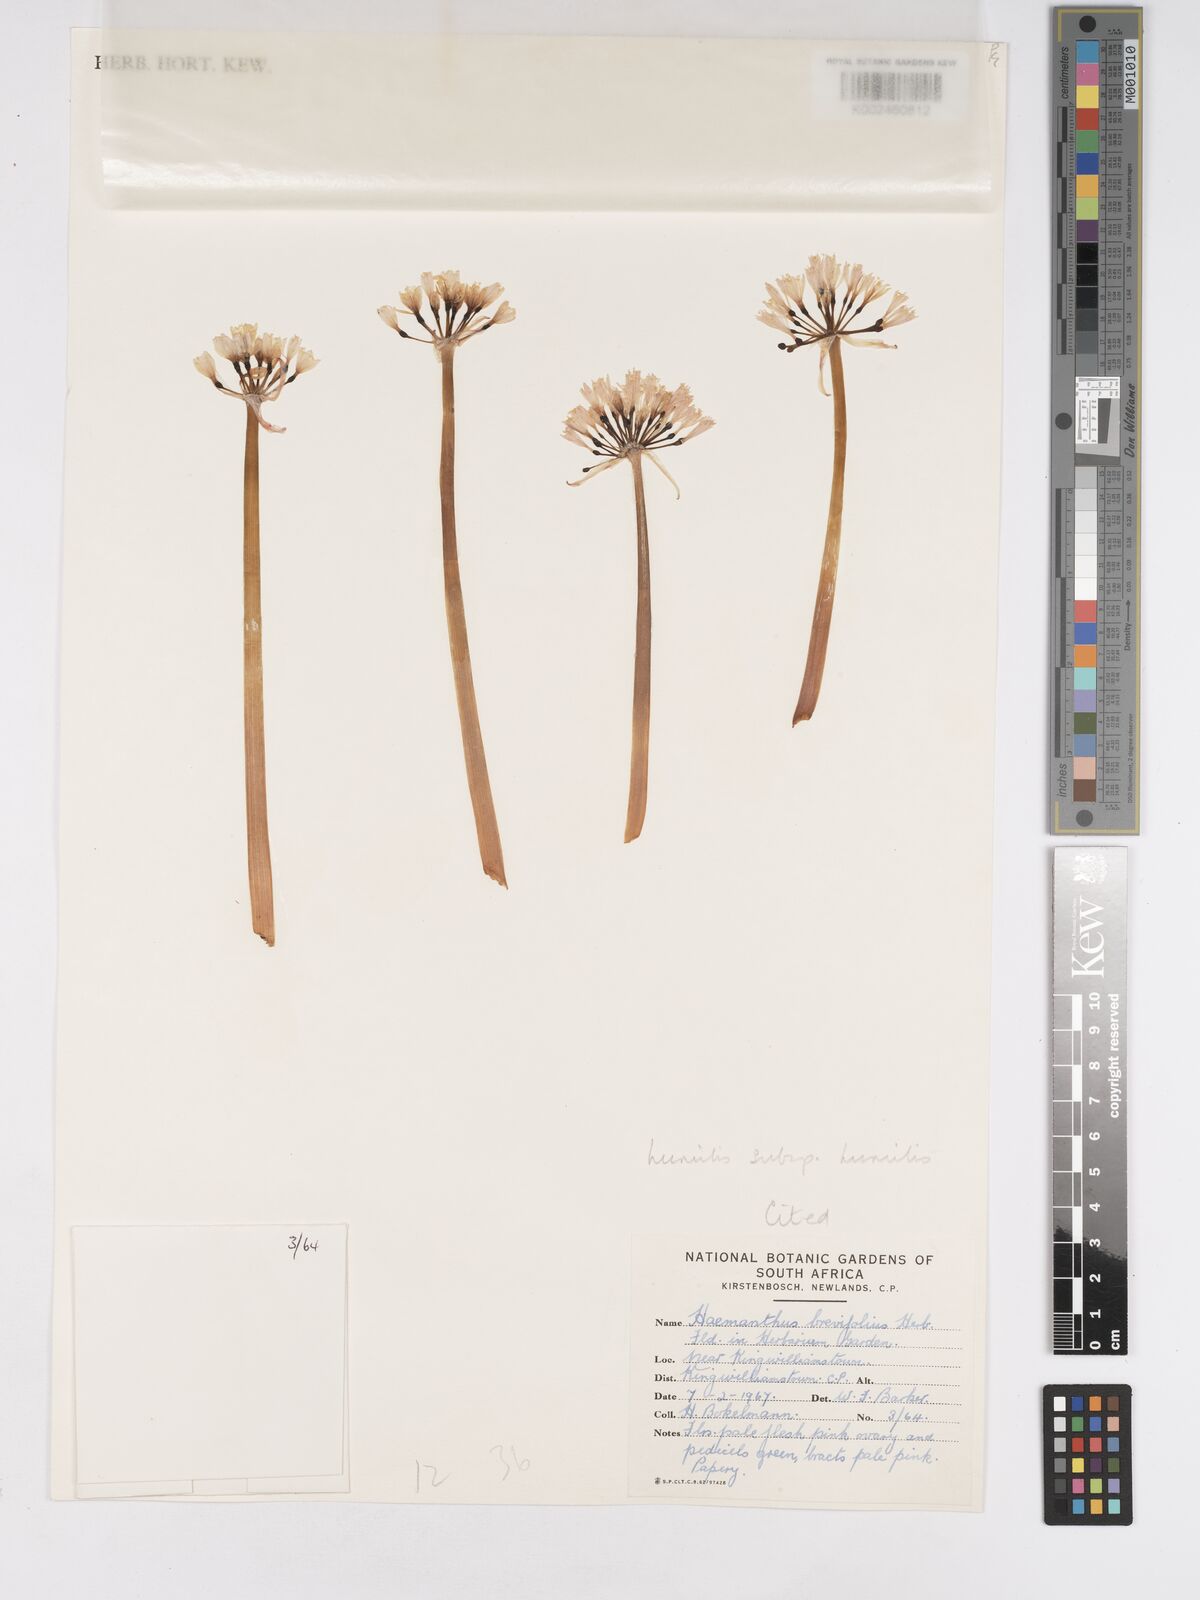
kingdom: Plantae
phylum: Tracheophyta
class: Liliopsida
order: Asparagales
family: Amaryllidaceae
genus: Haemanthus
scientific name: Haemanthus humilis
